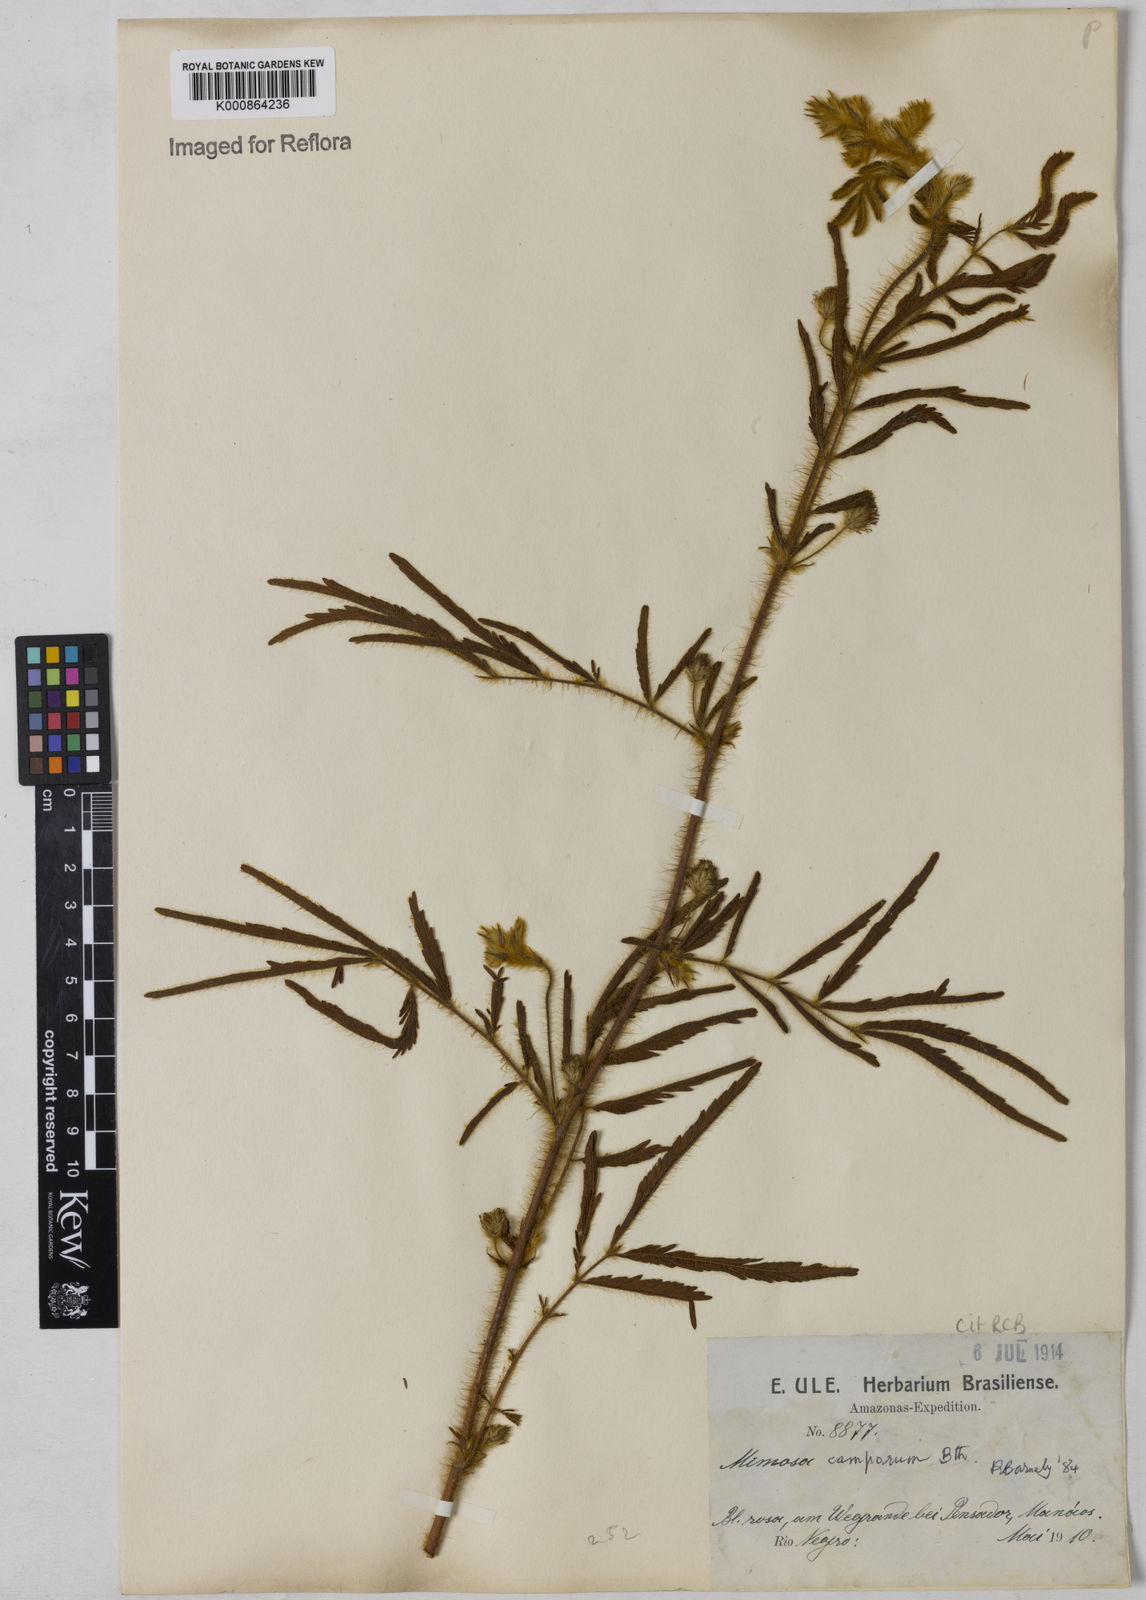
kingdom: Plantae
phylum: Tracheophyta
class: Magnoliopsida
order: Fabales
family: Fabaceae
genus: Mimosa
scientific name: Mimosa camporum
